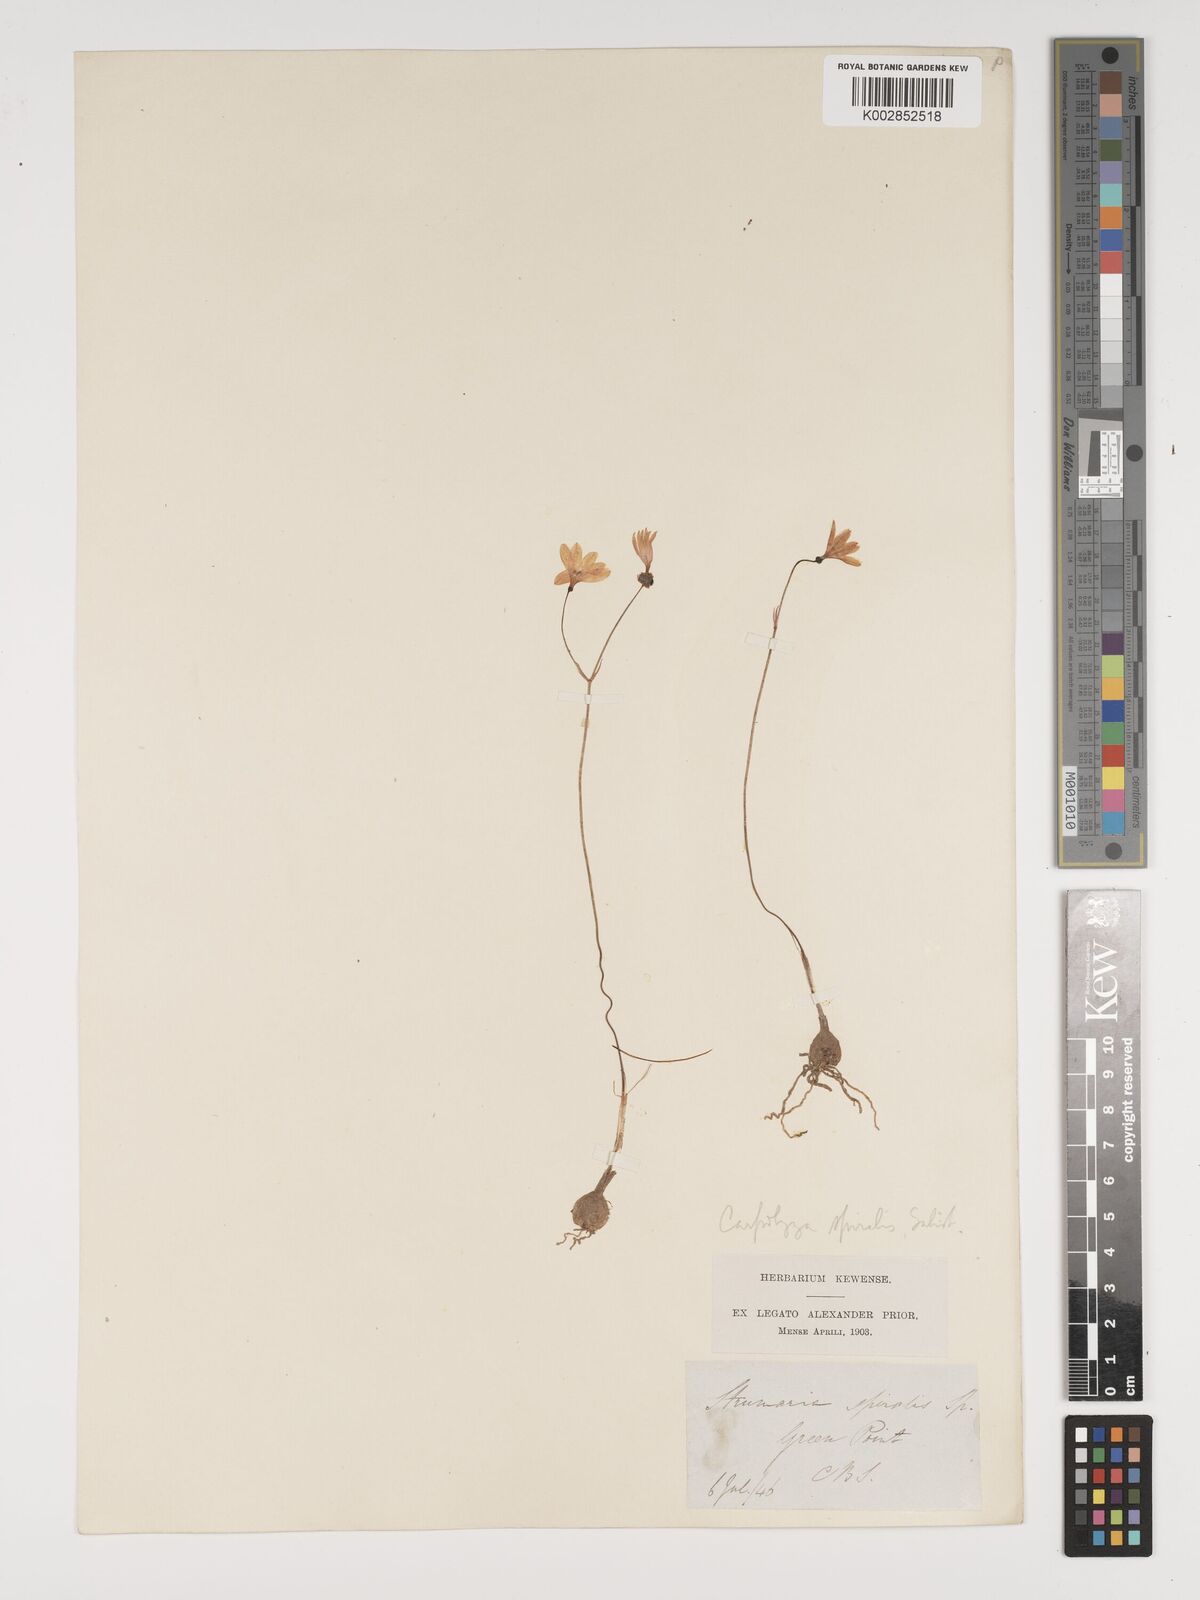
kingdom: Plantae
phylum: Tracheophyta
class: Liliopsida
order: Asparagales
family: Amaryllidaceae
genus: Strumaria
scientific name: Strumaria spiralis
